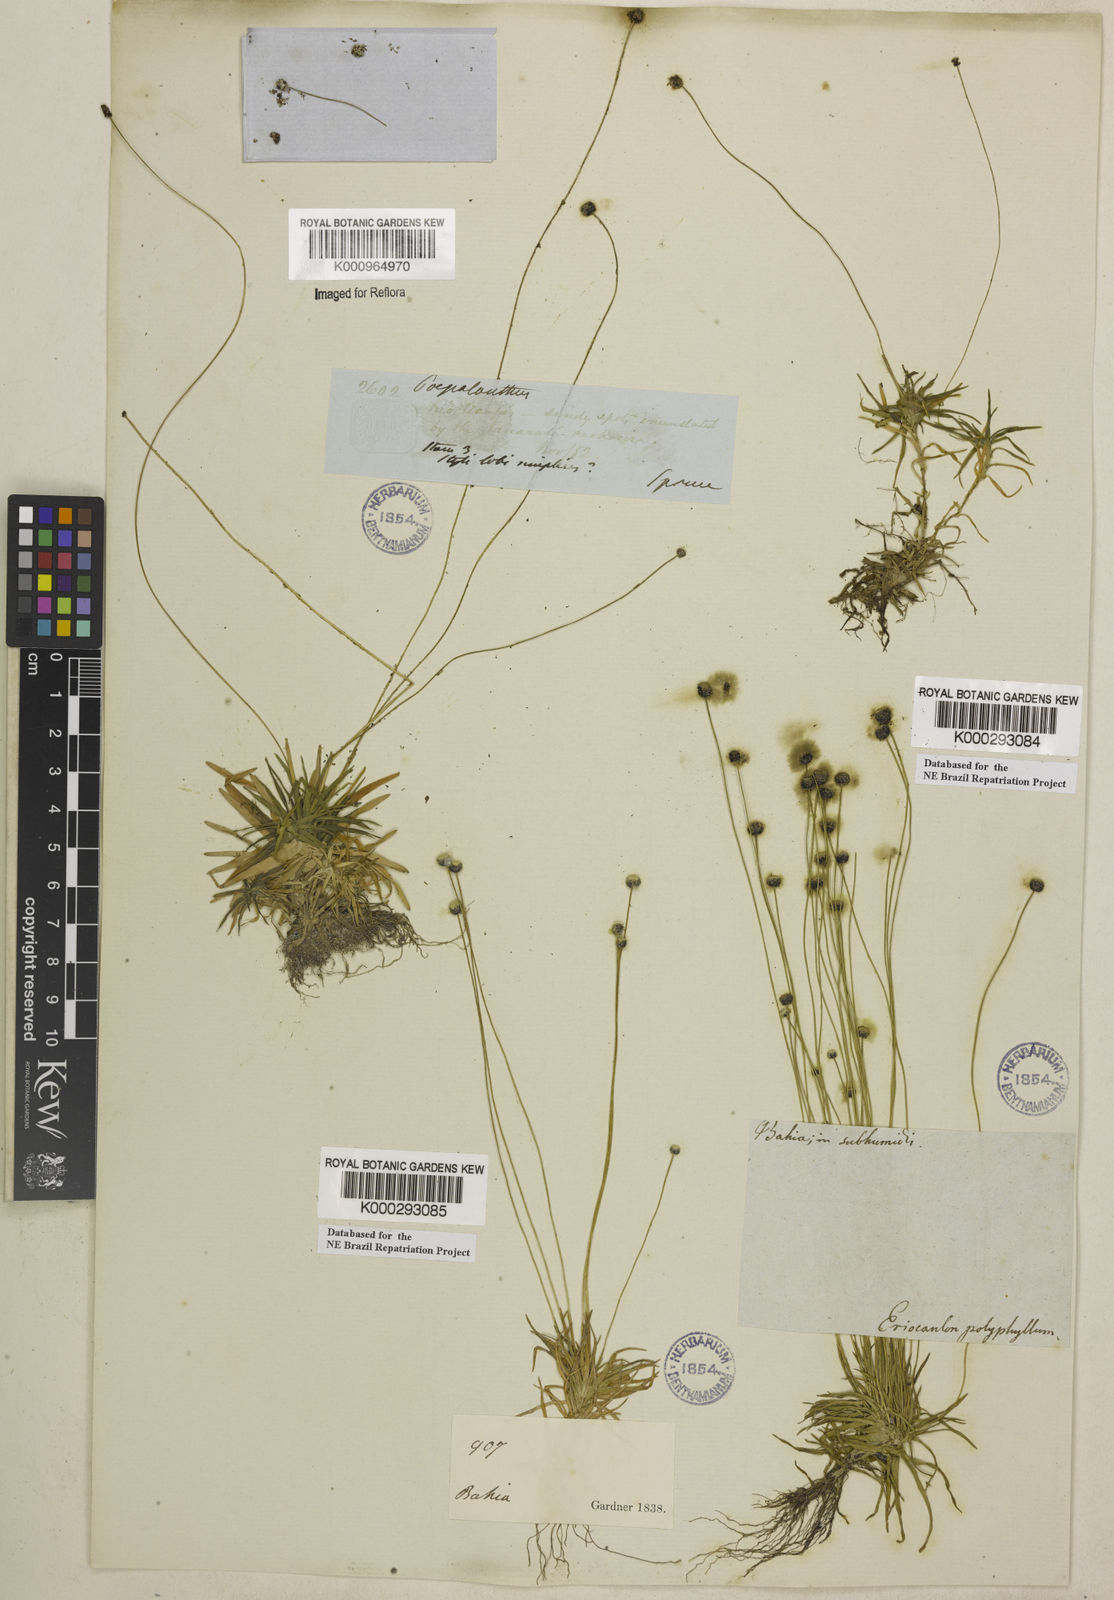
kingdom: Plantae
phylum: Tracheophyta
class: Liliopsida
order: Poales
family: Eriocaulaceae
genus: Paepalanthus
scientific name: Paepalanthus
